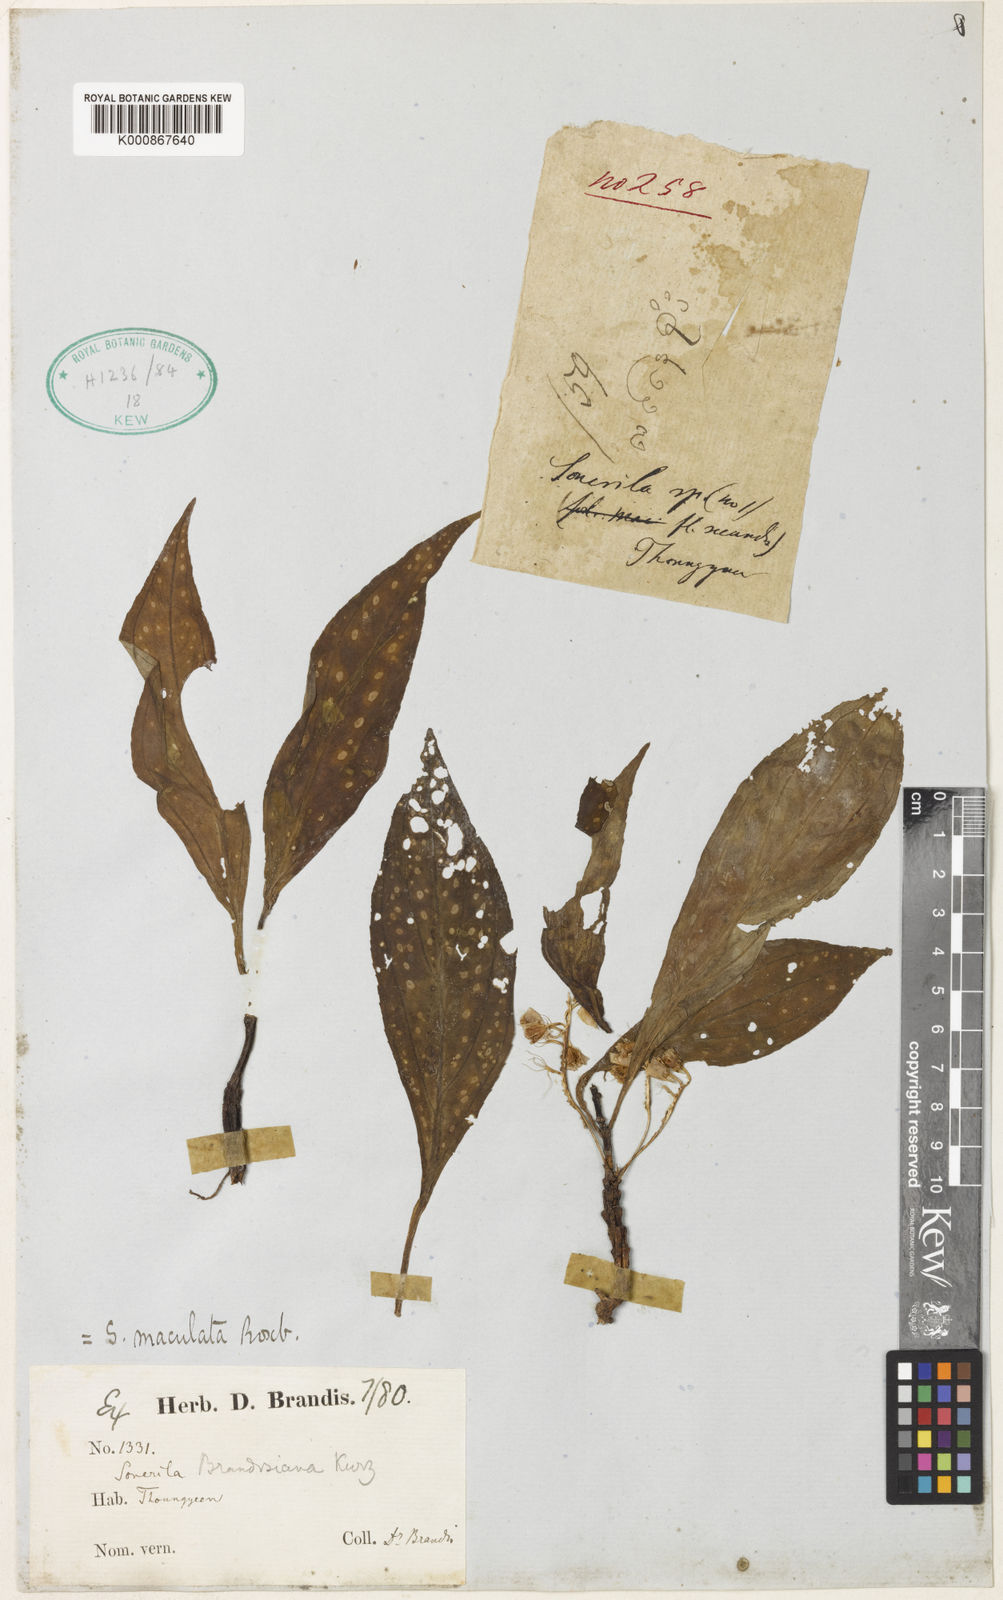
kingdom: Plantae
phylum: Tracheophyta
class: Magnoliopsida
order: Myrtales
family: Melastomataceae
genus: Sonerila
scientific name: Sonerila brandisiana
